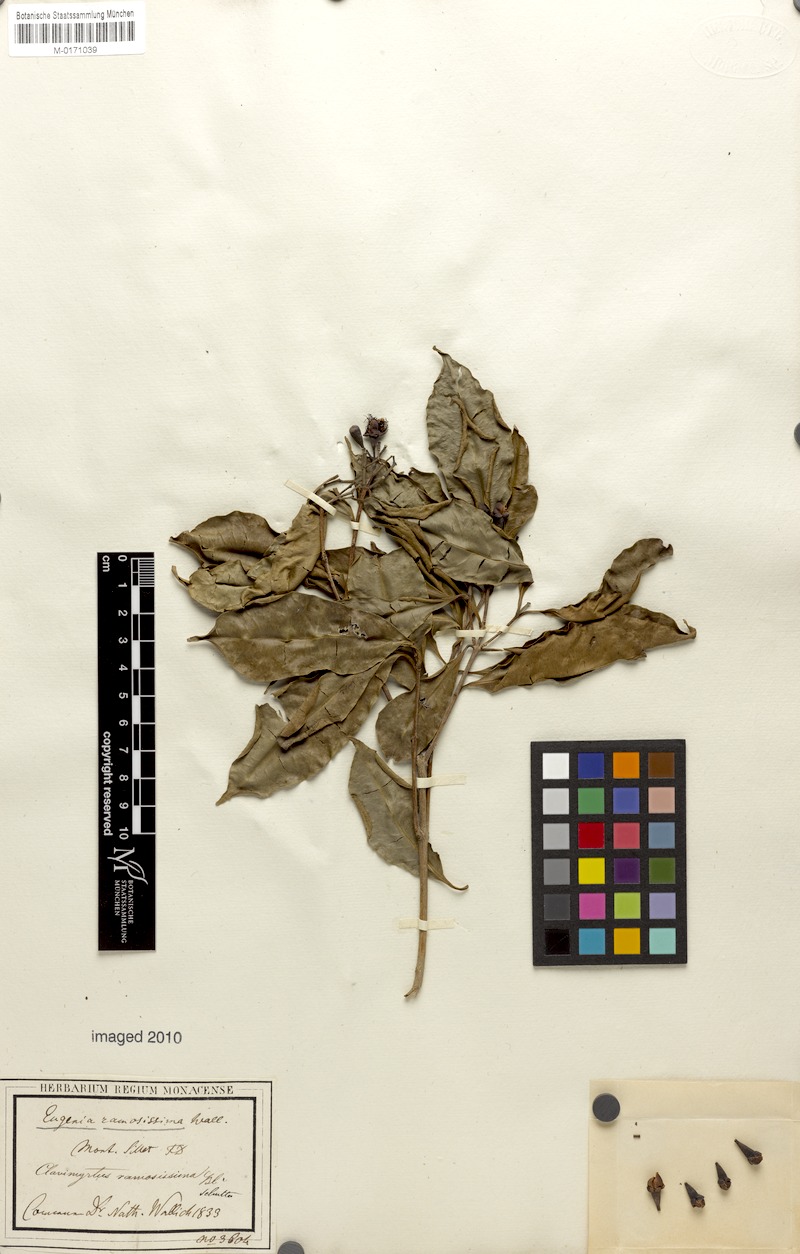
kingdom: Plantae
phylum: Tracheophyta
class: Magnoliopsida
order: Myrtales
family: Myrtaceae
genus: Syzygium
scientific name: Syzygium ramosissimum
